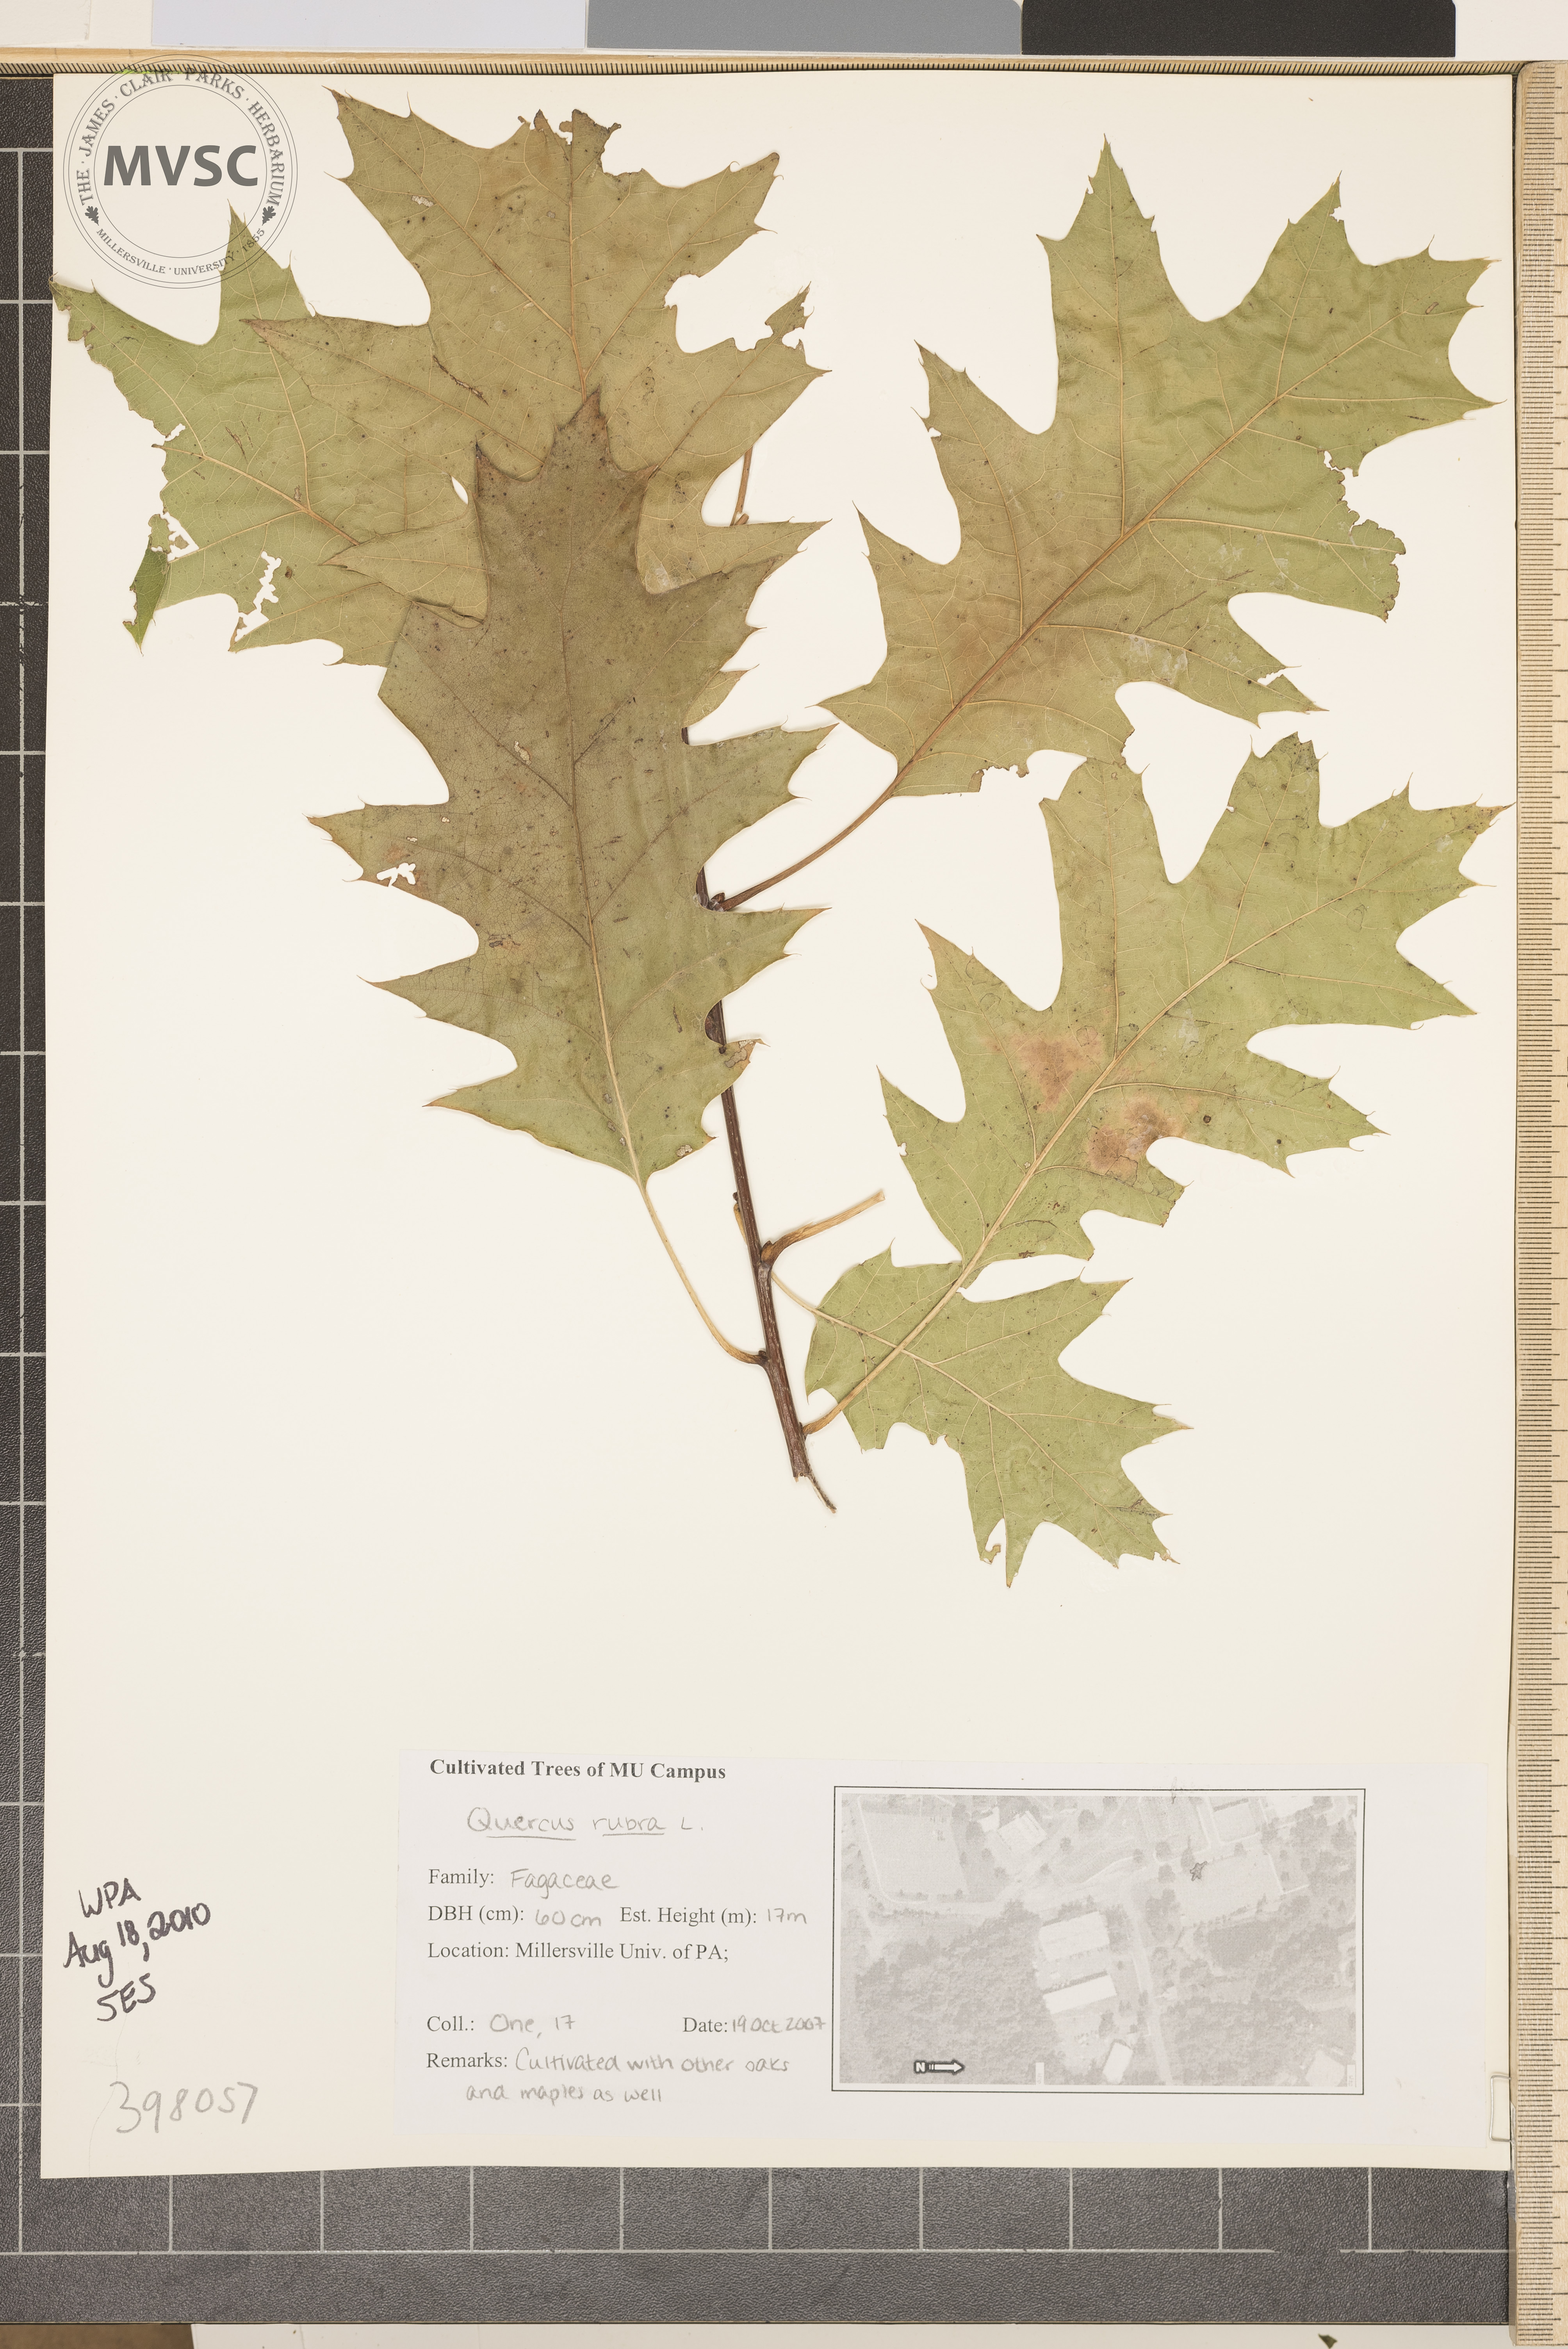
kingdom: Plantae
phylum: Tracheophyta
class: Magnoliopsida
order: Fagales
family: Fagaceae
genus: Quercus
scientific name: Quercus rubra
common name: Northern red oak
